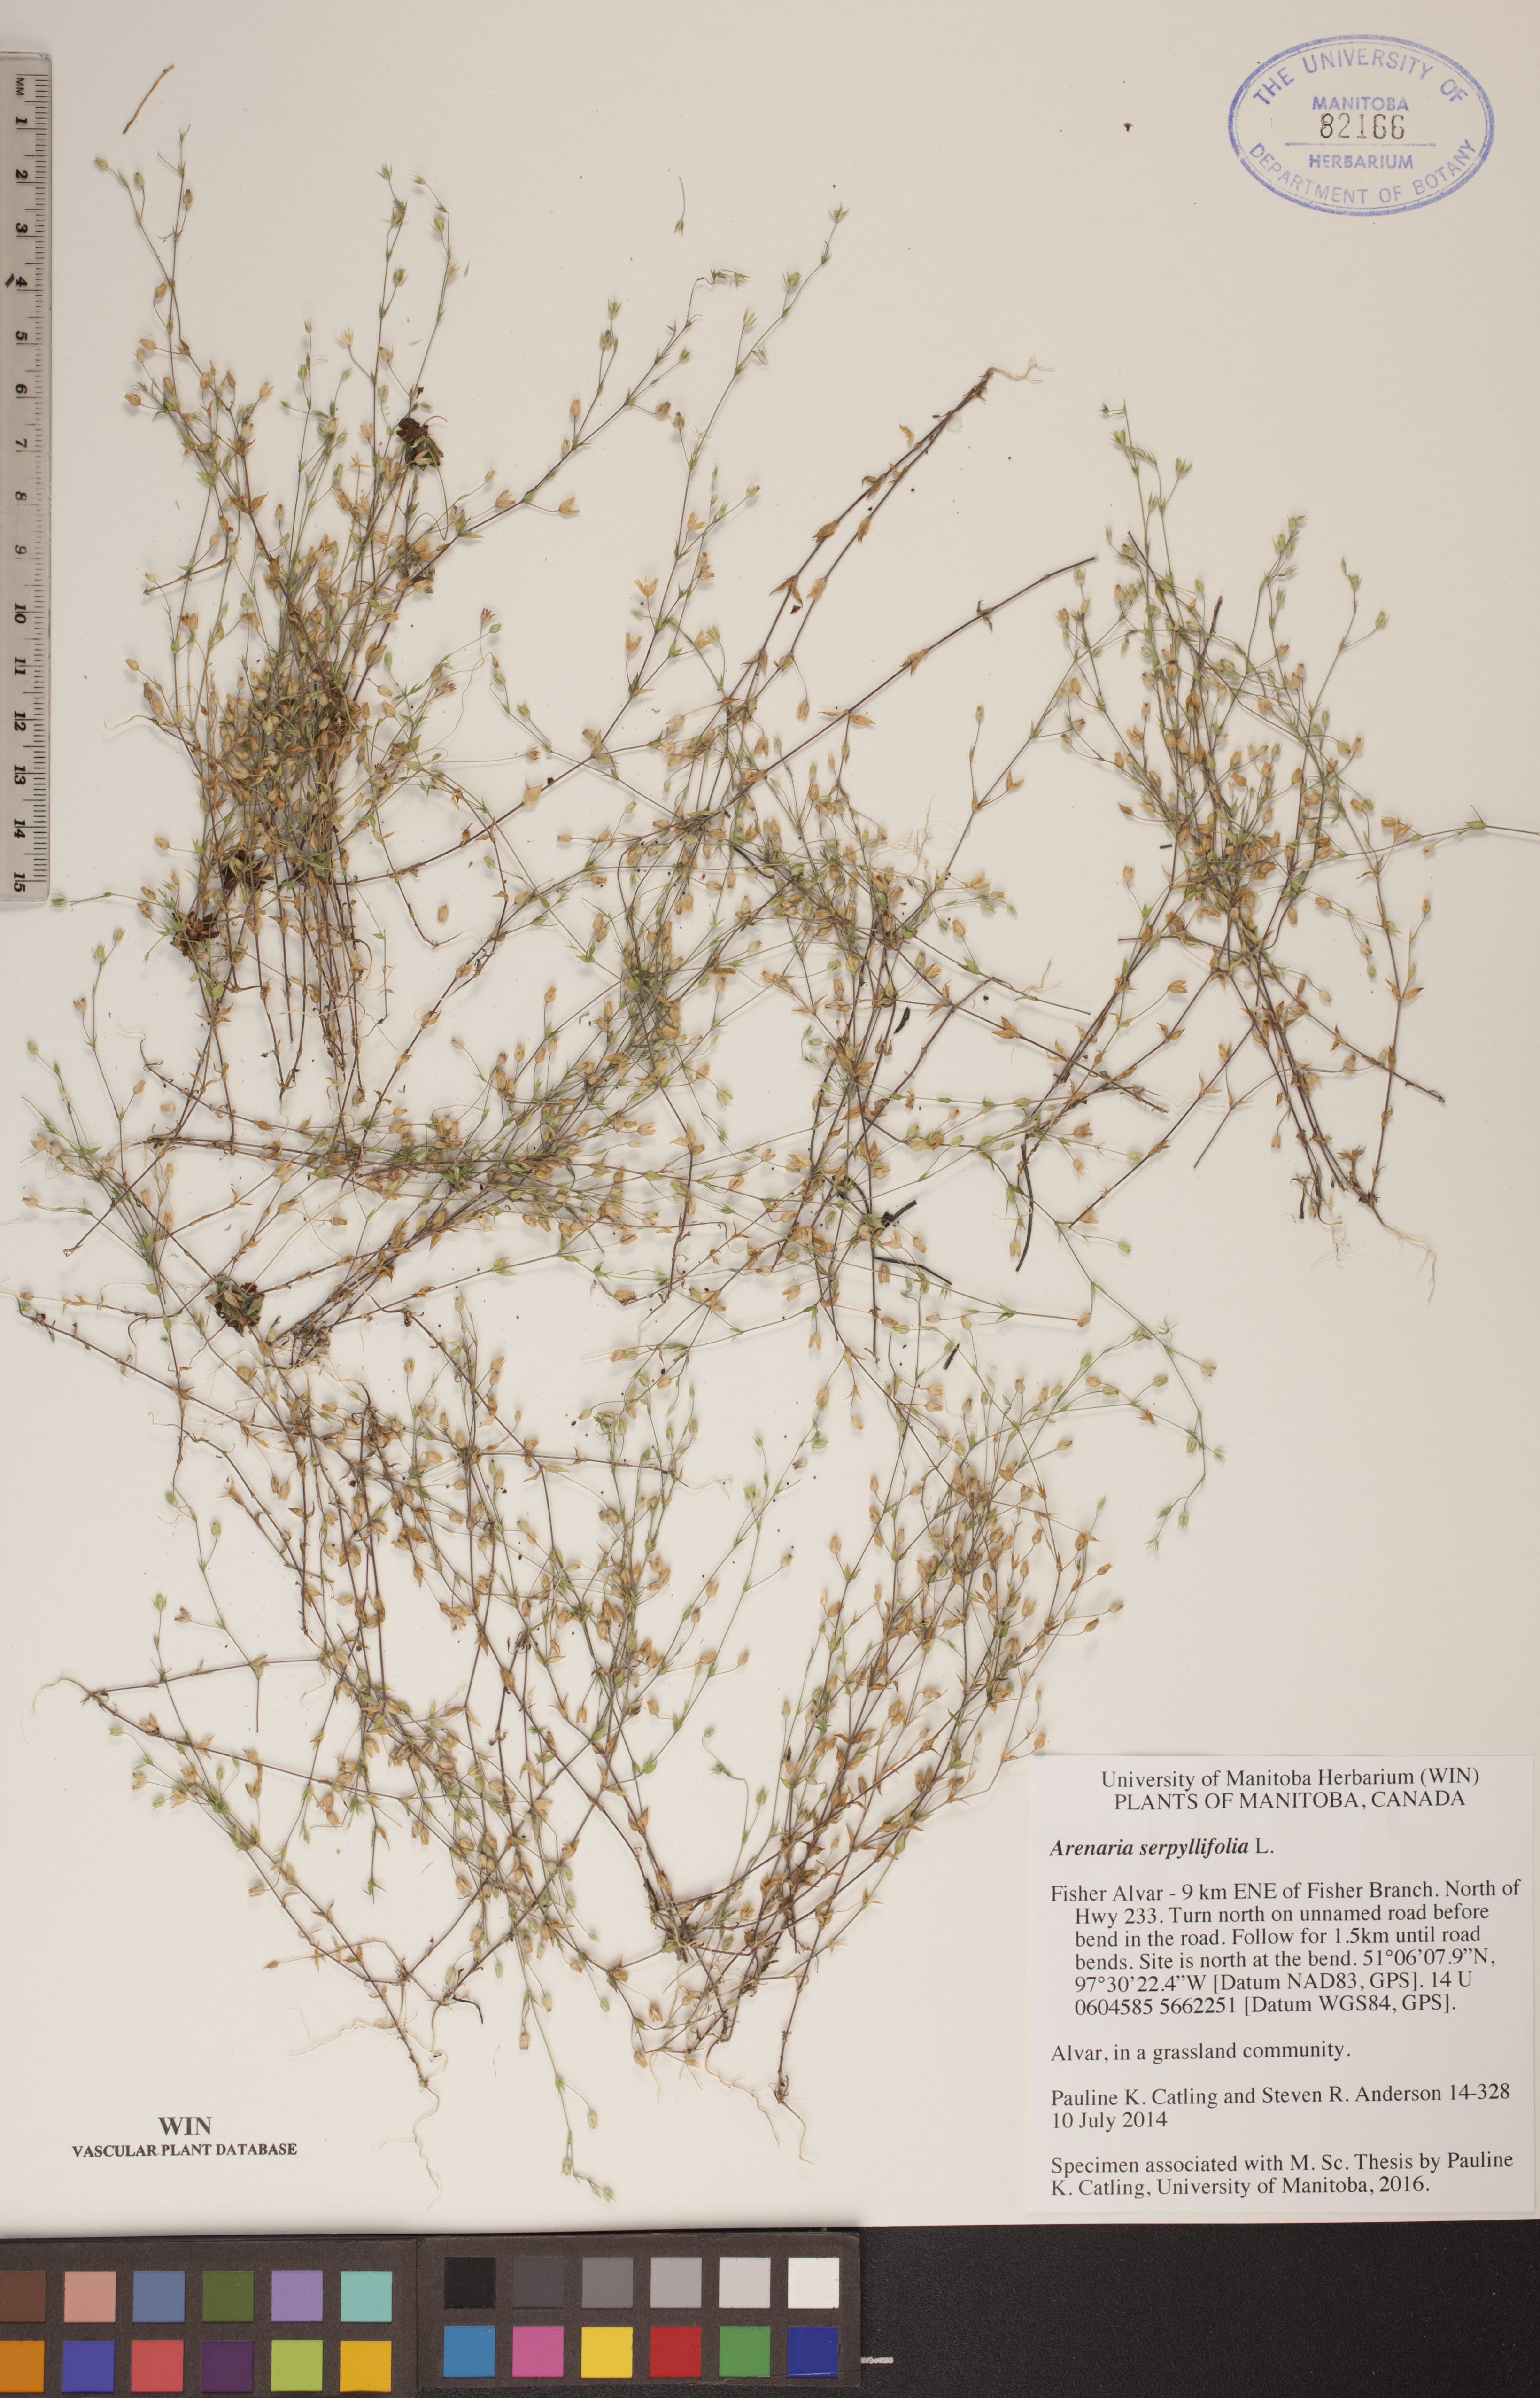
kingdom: Plantae
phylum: Tracheophyta
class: Magnoliopsida
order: Caryophyllales
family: Caryophyllaceae
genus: Arenaria
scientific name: Arenaria serpyllifolia
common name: Thyme-leaved sandwort
